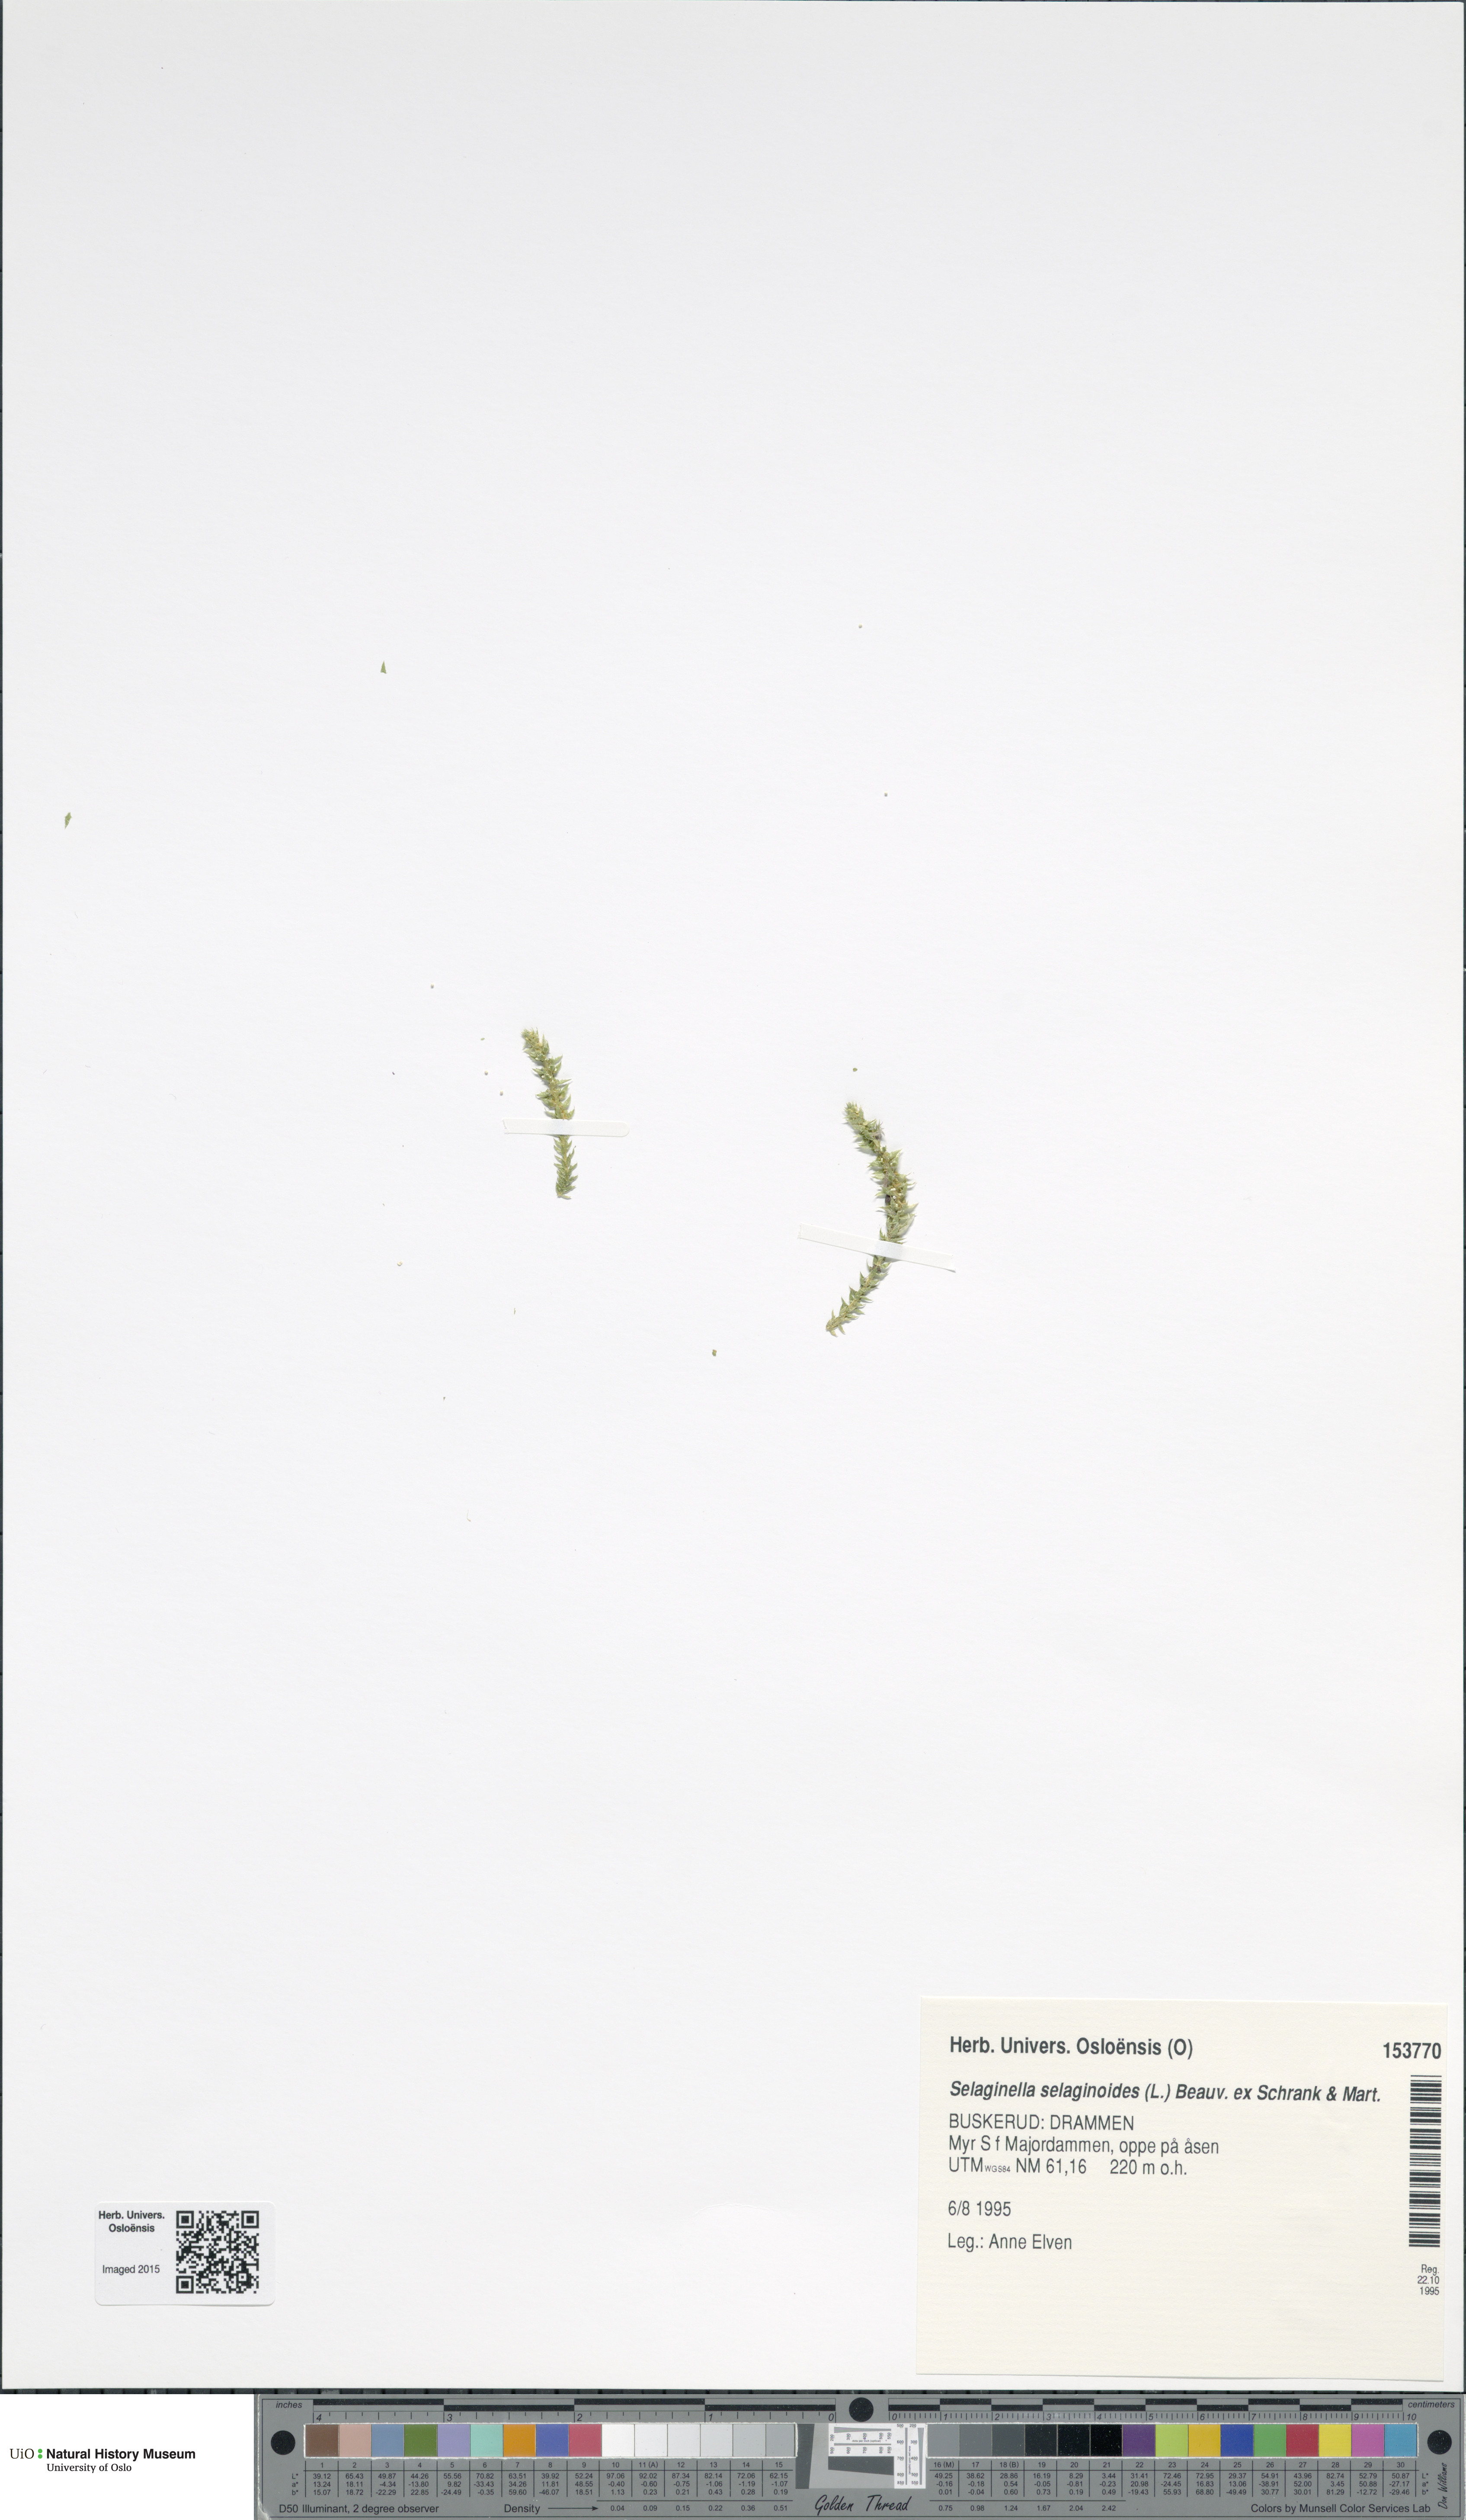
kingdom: Plantae
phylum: Tracheophyta
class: Lycopodiopsida
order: Selaginellales
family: Selaginellaceae
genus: Selaginella
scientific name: Selaginella selaginoides
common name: Prickly mountain-moss
